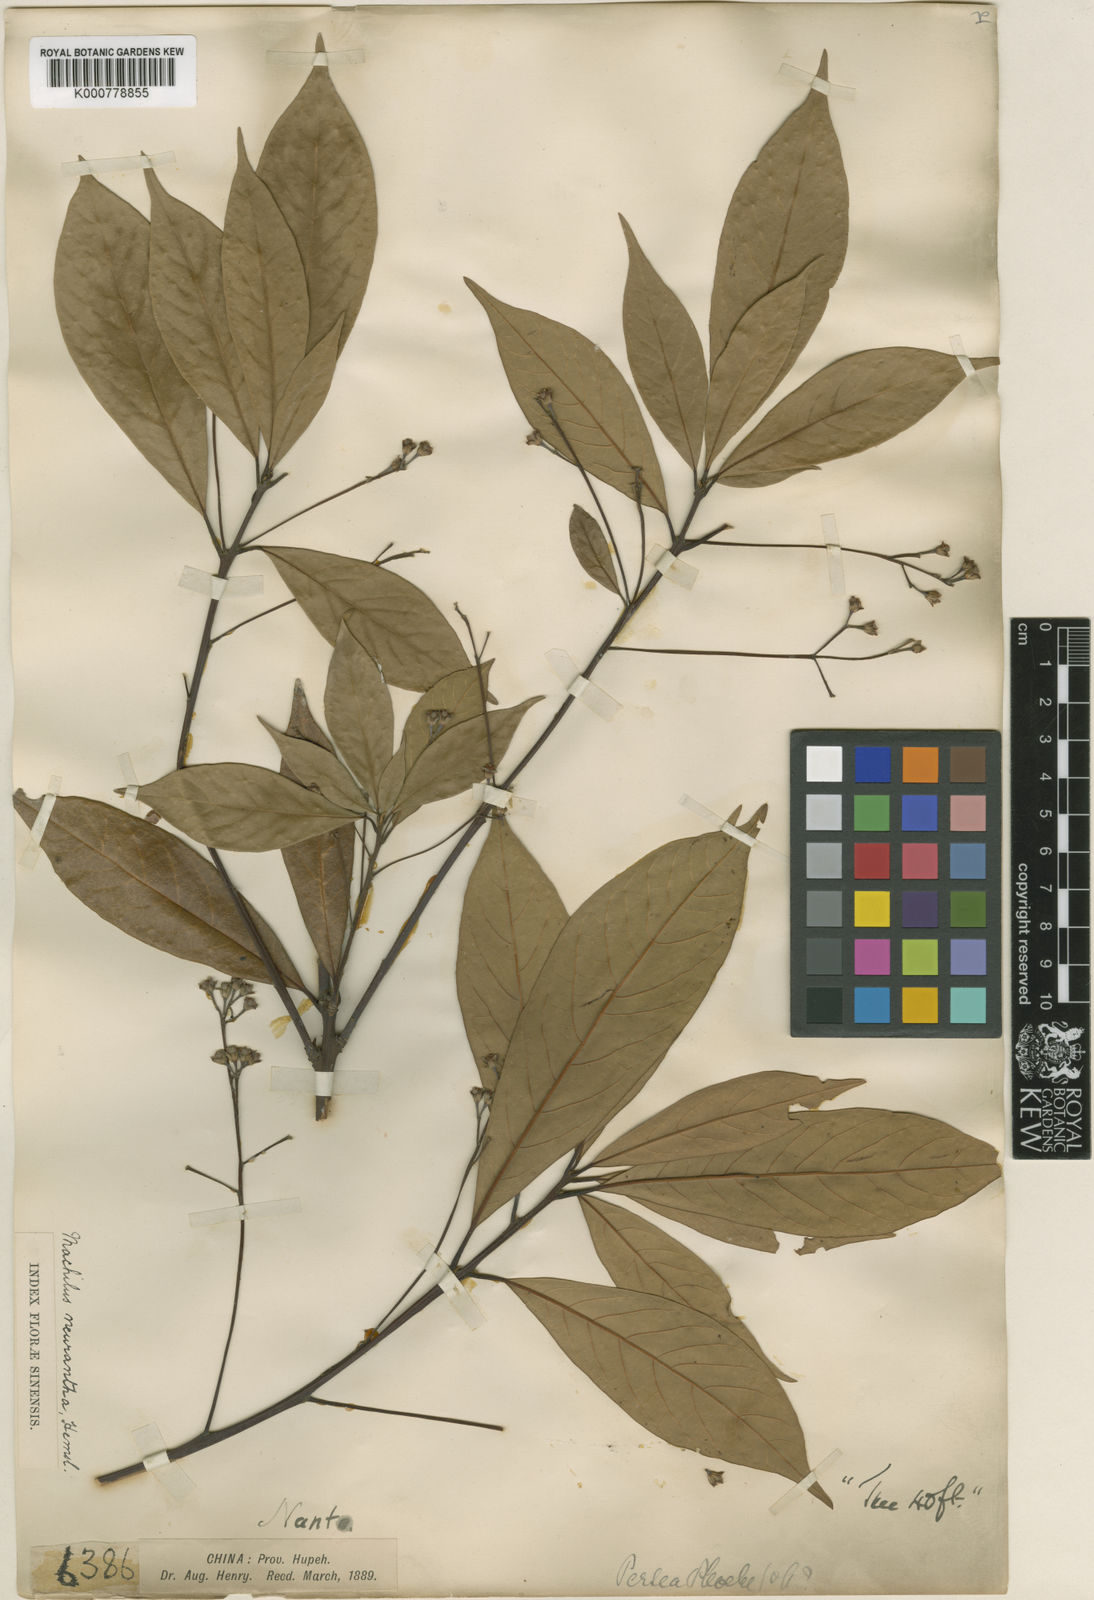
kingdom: Plantae
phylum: Tracheophyta
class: Magnoliopsida
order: Laurales
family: Lauraceae
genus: Phoebe
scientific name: Phoebe neurantha
